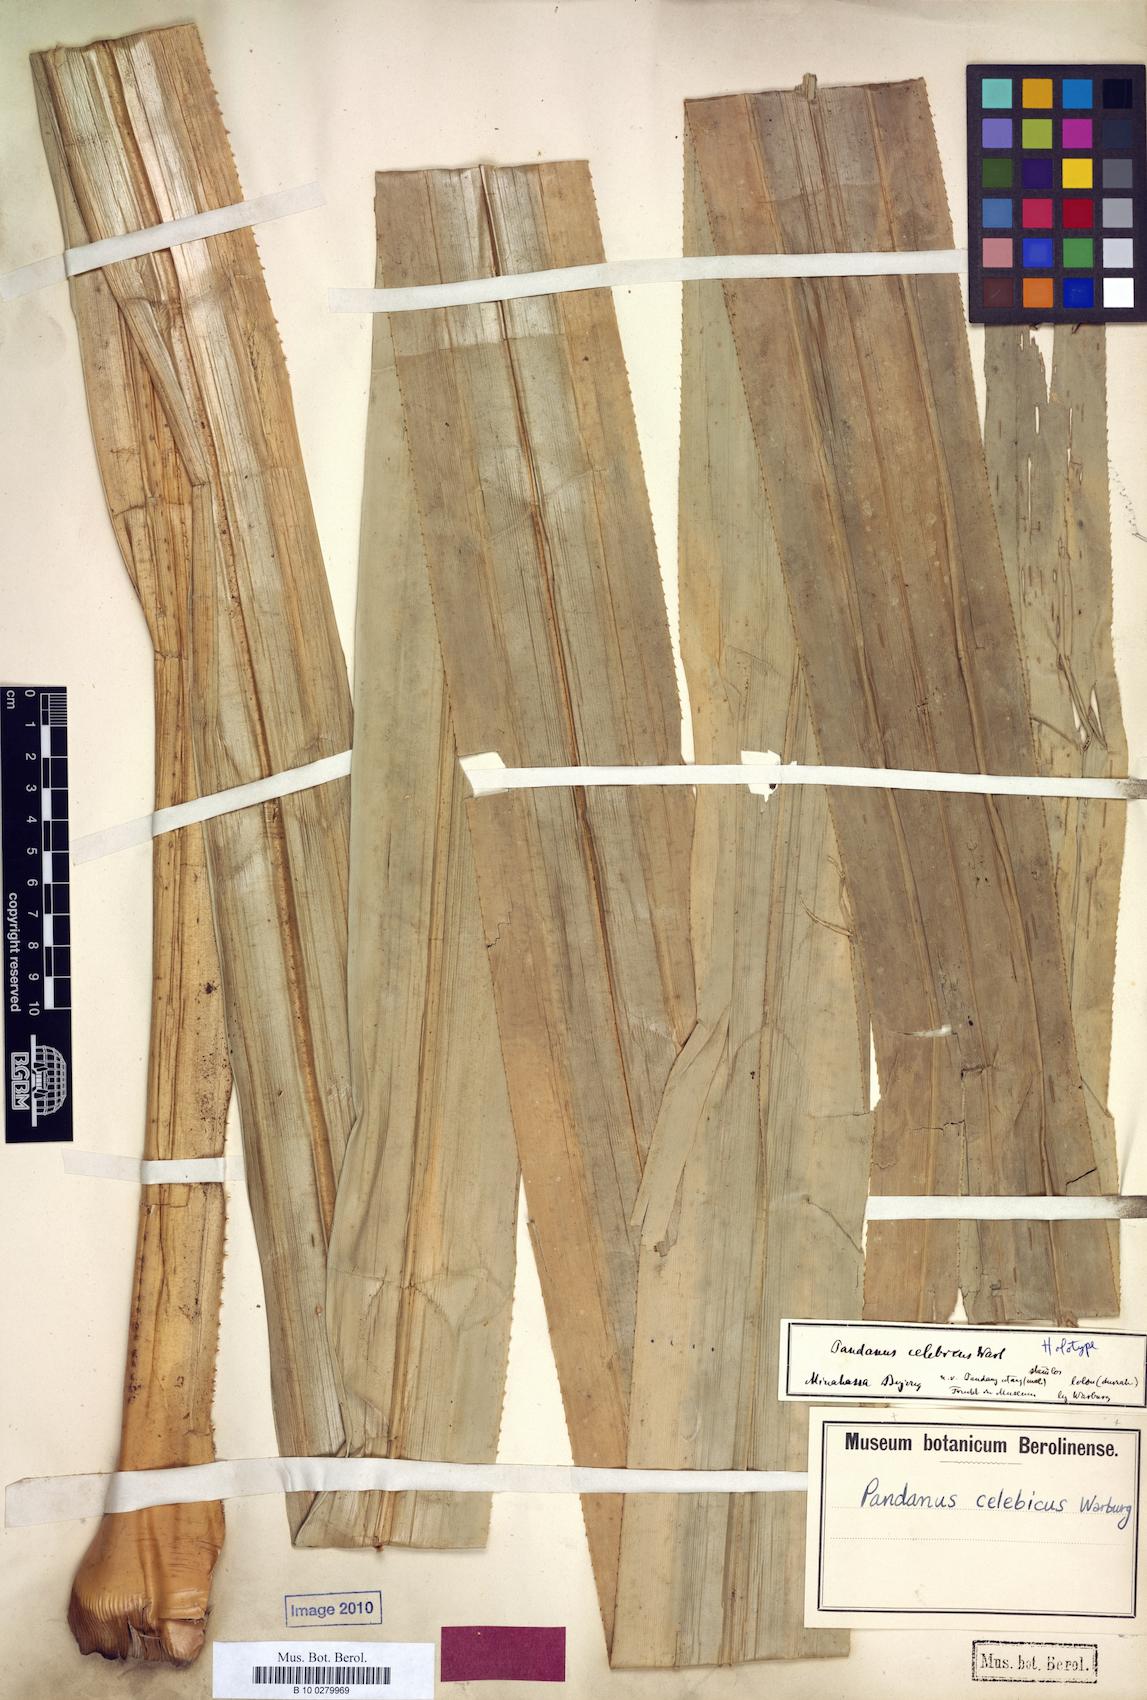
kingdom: Plantae
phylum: Tracheophyta
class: Liliopsida
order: Pandanales
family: Pandanaceae
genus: Benstonea
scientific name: Benstonea celebica
